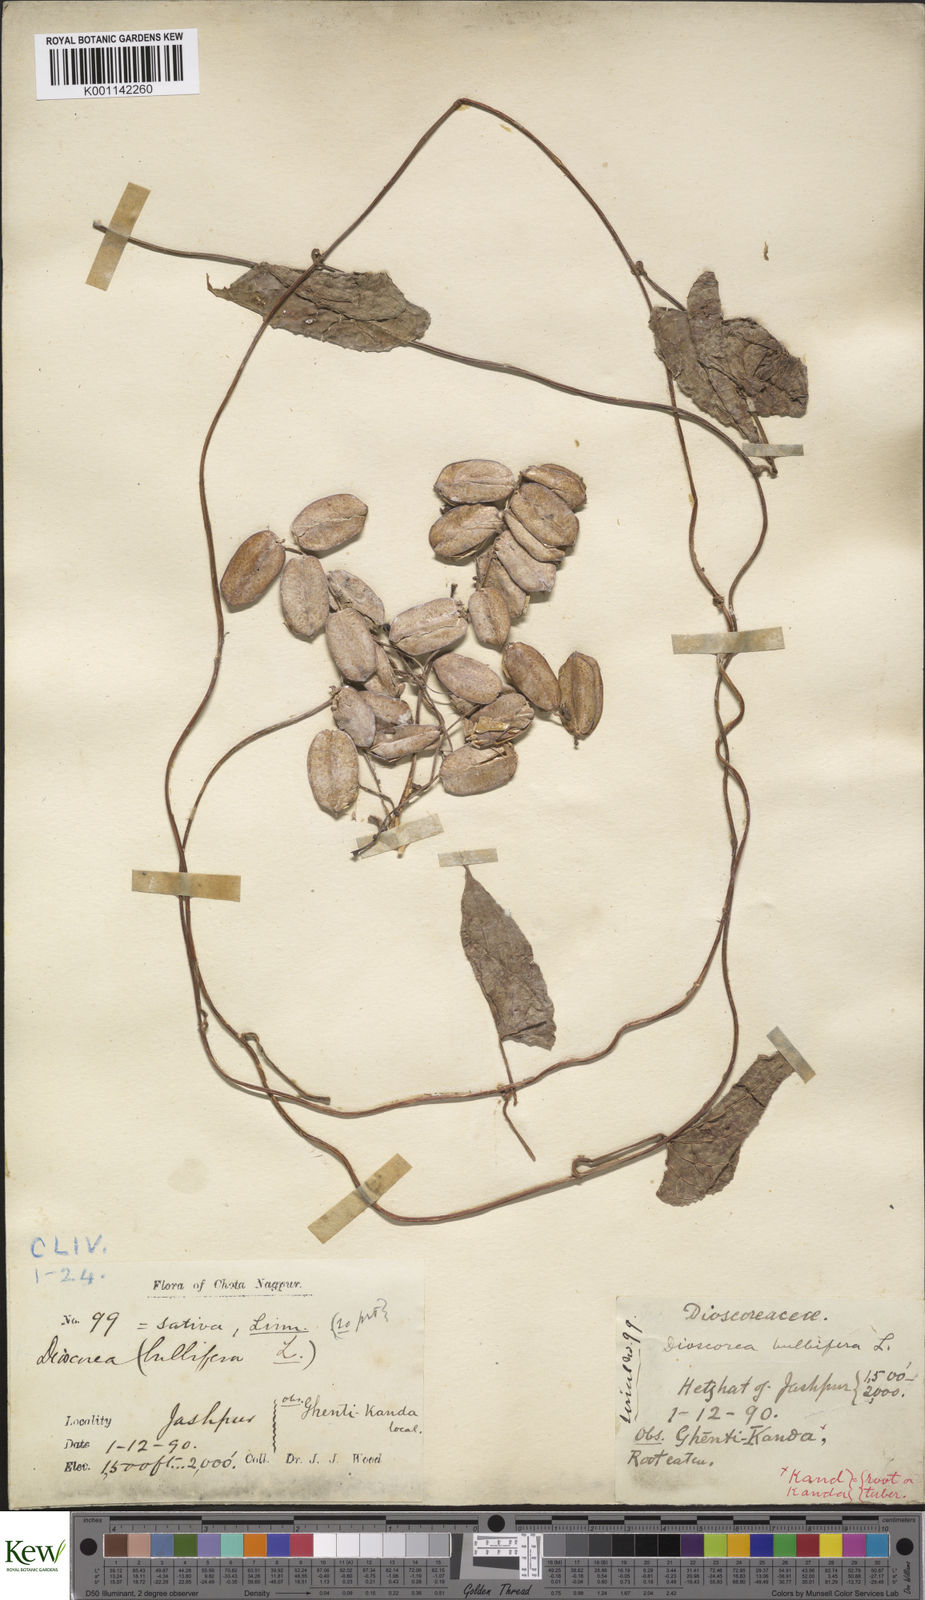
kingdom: Plantae
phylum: Tracheophyta
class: Liliopsida
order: Dioscoreales
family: Dioscoreaceae
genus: Dioscorea
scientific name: Dioscorea bulbifera
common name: Air yam
